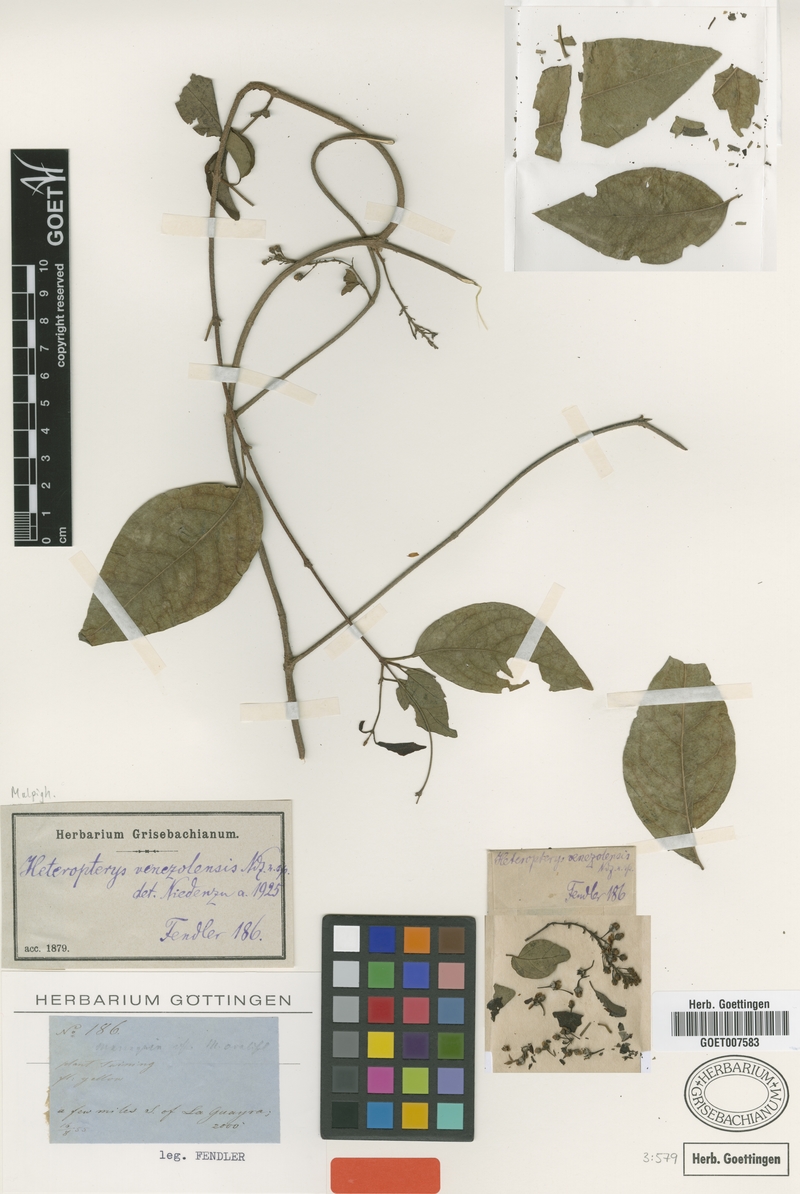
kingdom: Plantae
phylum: Tracheophyta
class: Magnoliopsida
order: Malpighiales
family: Malpighiaceae
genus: Heteropterys
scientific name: Heteropterys prunifolia
